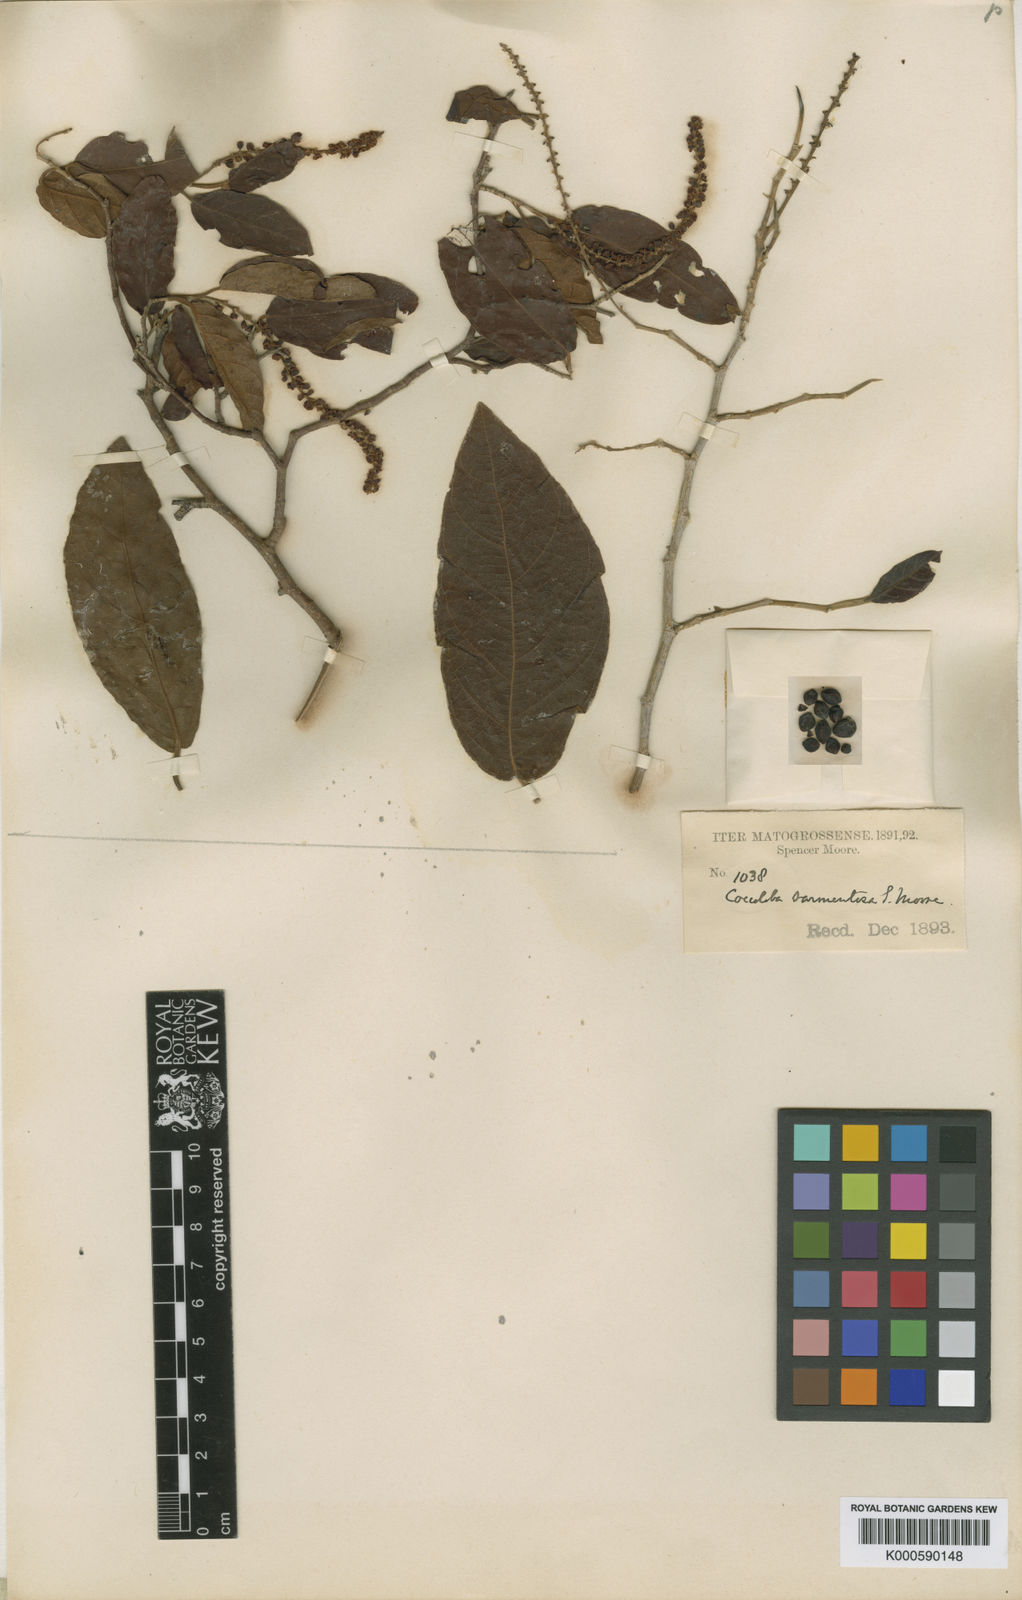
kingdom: Plantae
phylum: Tracheophyta
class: Magnoliopsida
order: Caryophyllales
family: Polygonaceae
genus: Coccoloba
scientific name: Coccoloba spinescens
